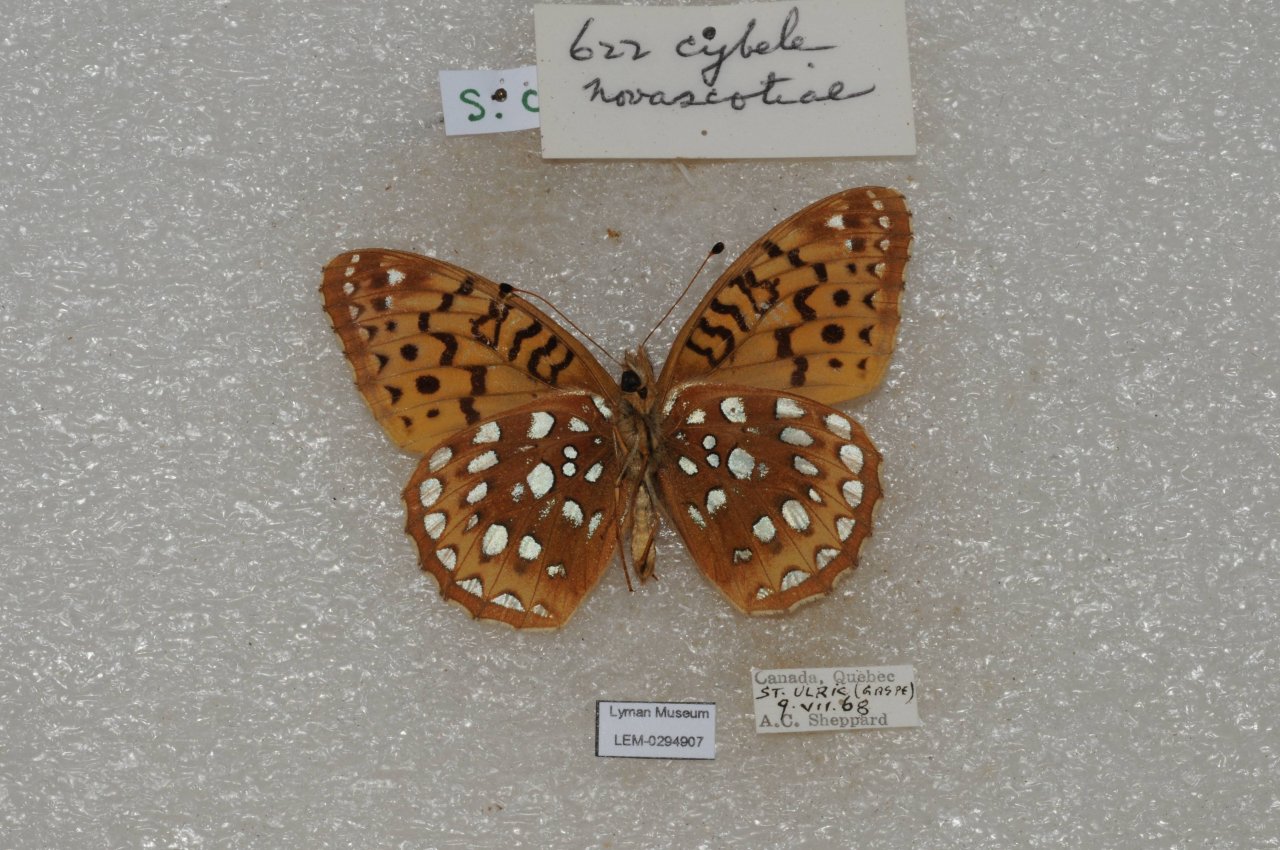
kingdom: Animalia
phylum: Arthropoda
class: Insecta
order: Lepidoptera
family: Nymphalidae
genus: Speyeria
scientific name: Speyeria cybele
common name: Great Spangled Fritillary
